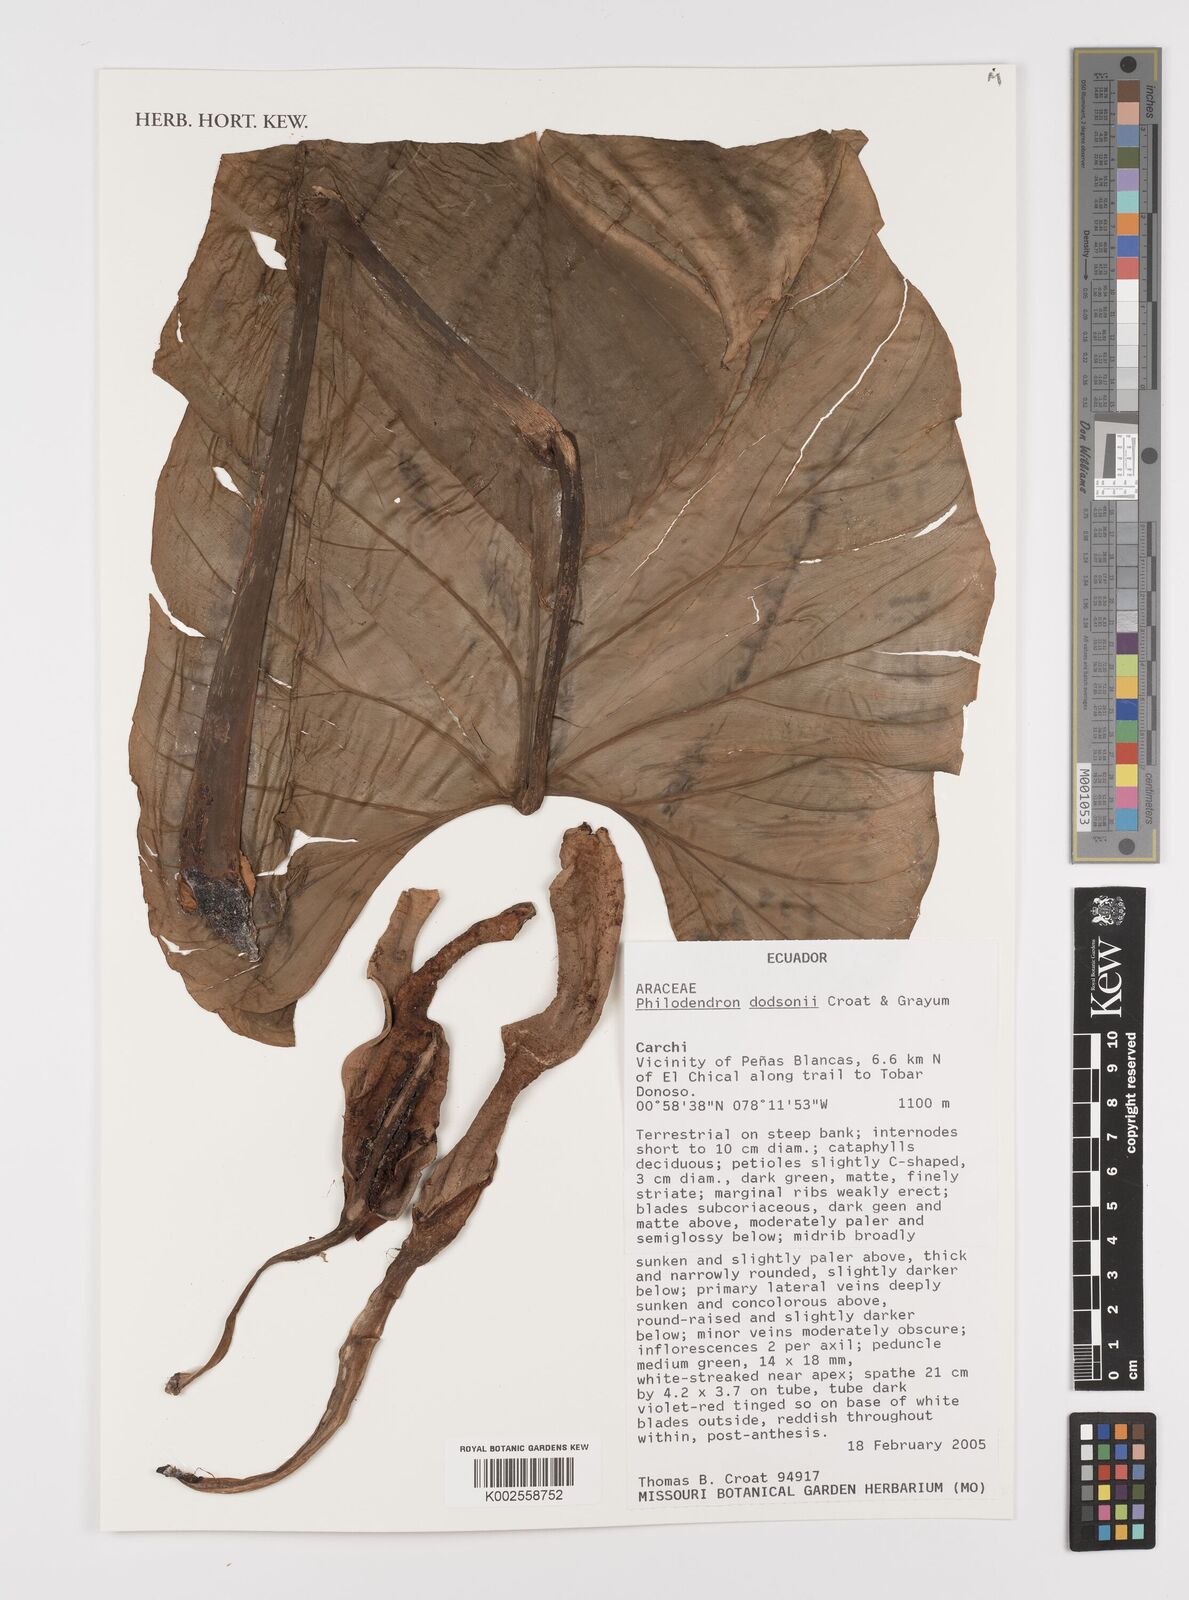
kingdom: Plantae
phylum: Tracheophyta
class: Liliopsida
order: Alismatales
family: Araceae
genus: Philodendron
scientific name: Philodendron dodsonii
